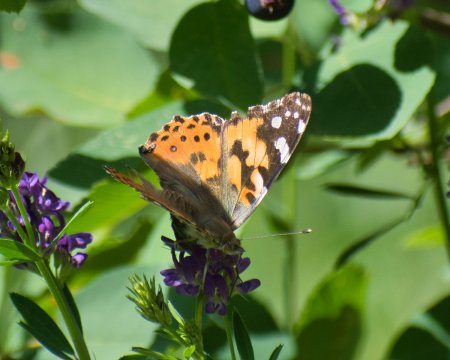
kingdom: Animalia
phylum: Arthropoda
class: Insecta
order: Lepidoptera
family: Nymphalidae
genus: Vanessa
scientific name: Vanessa cardui
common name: Painted Lady
